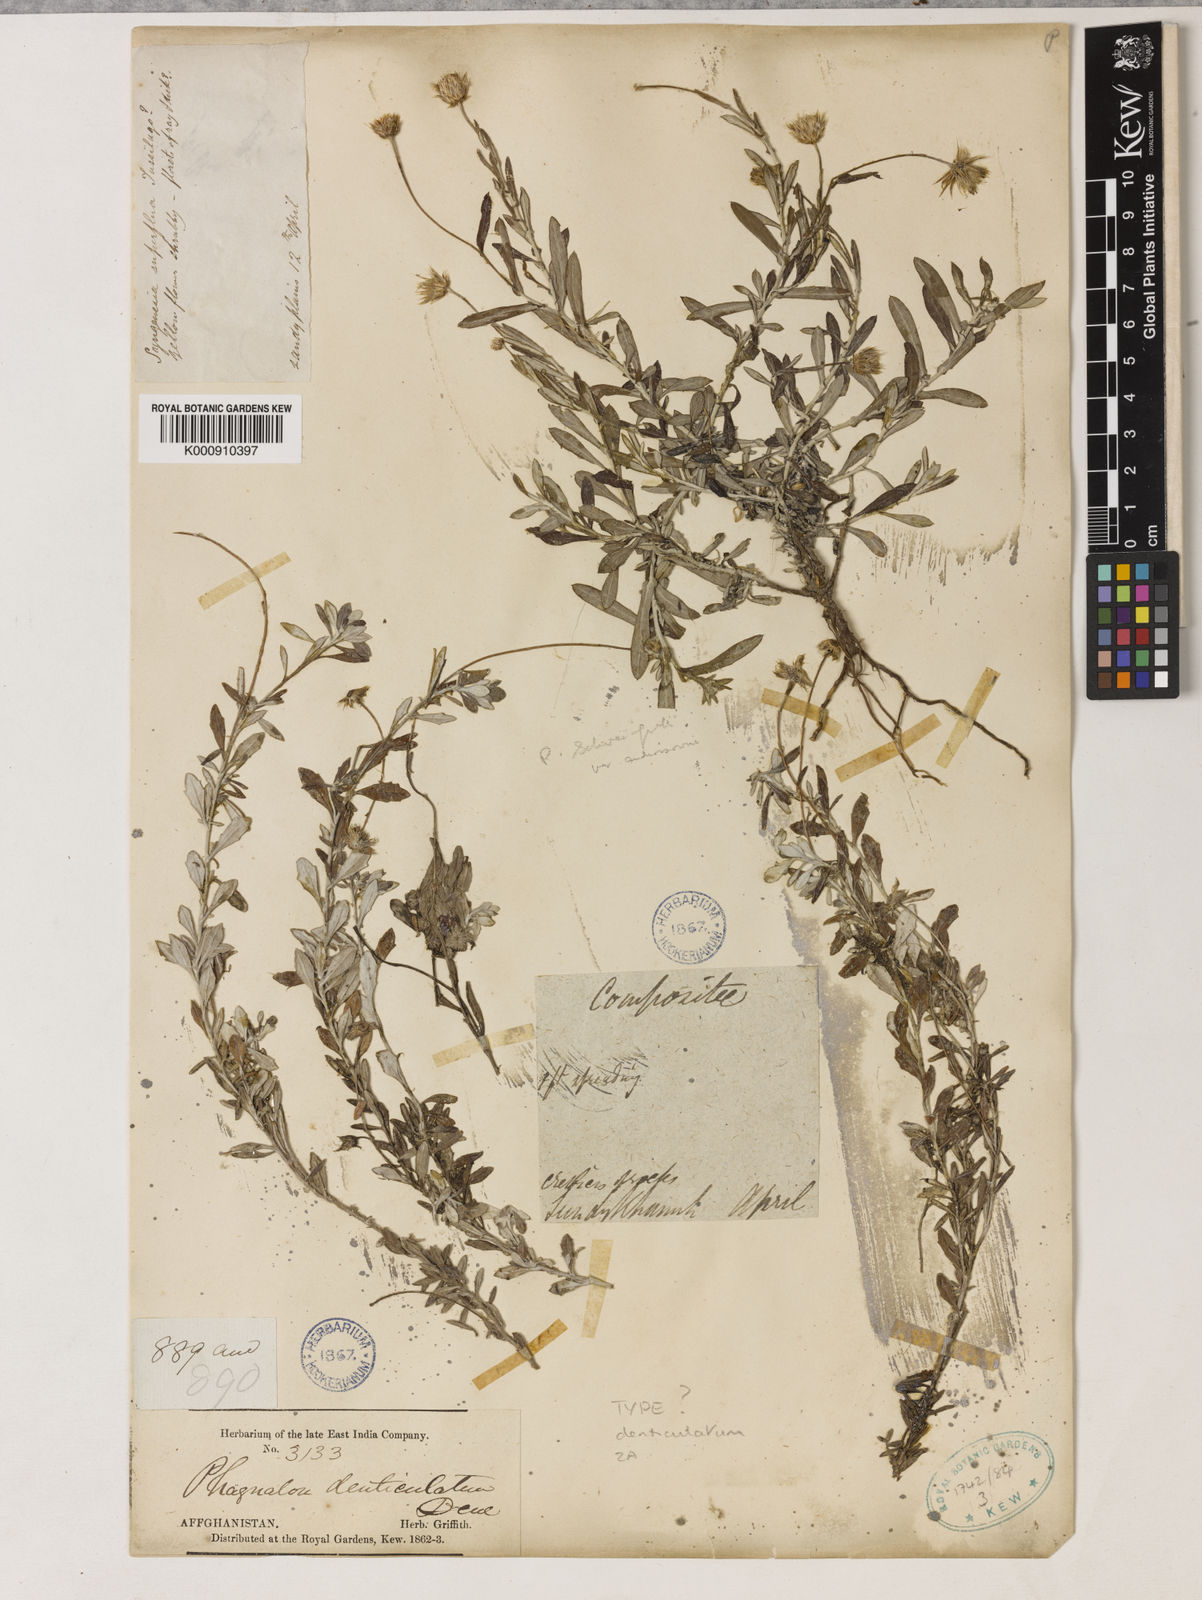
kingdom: Plantae
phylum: Tracheophyta
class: Magnoliopsida
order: Asterales
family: Asteraceae
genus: Phagnalon
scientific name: Phagnalon niveum
